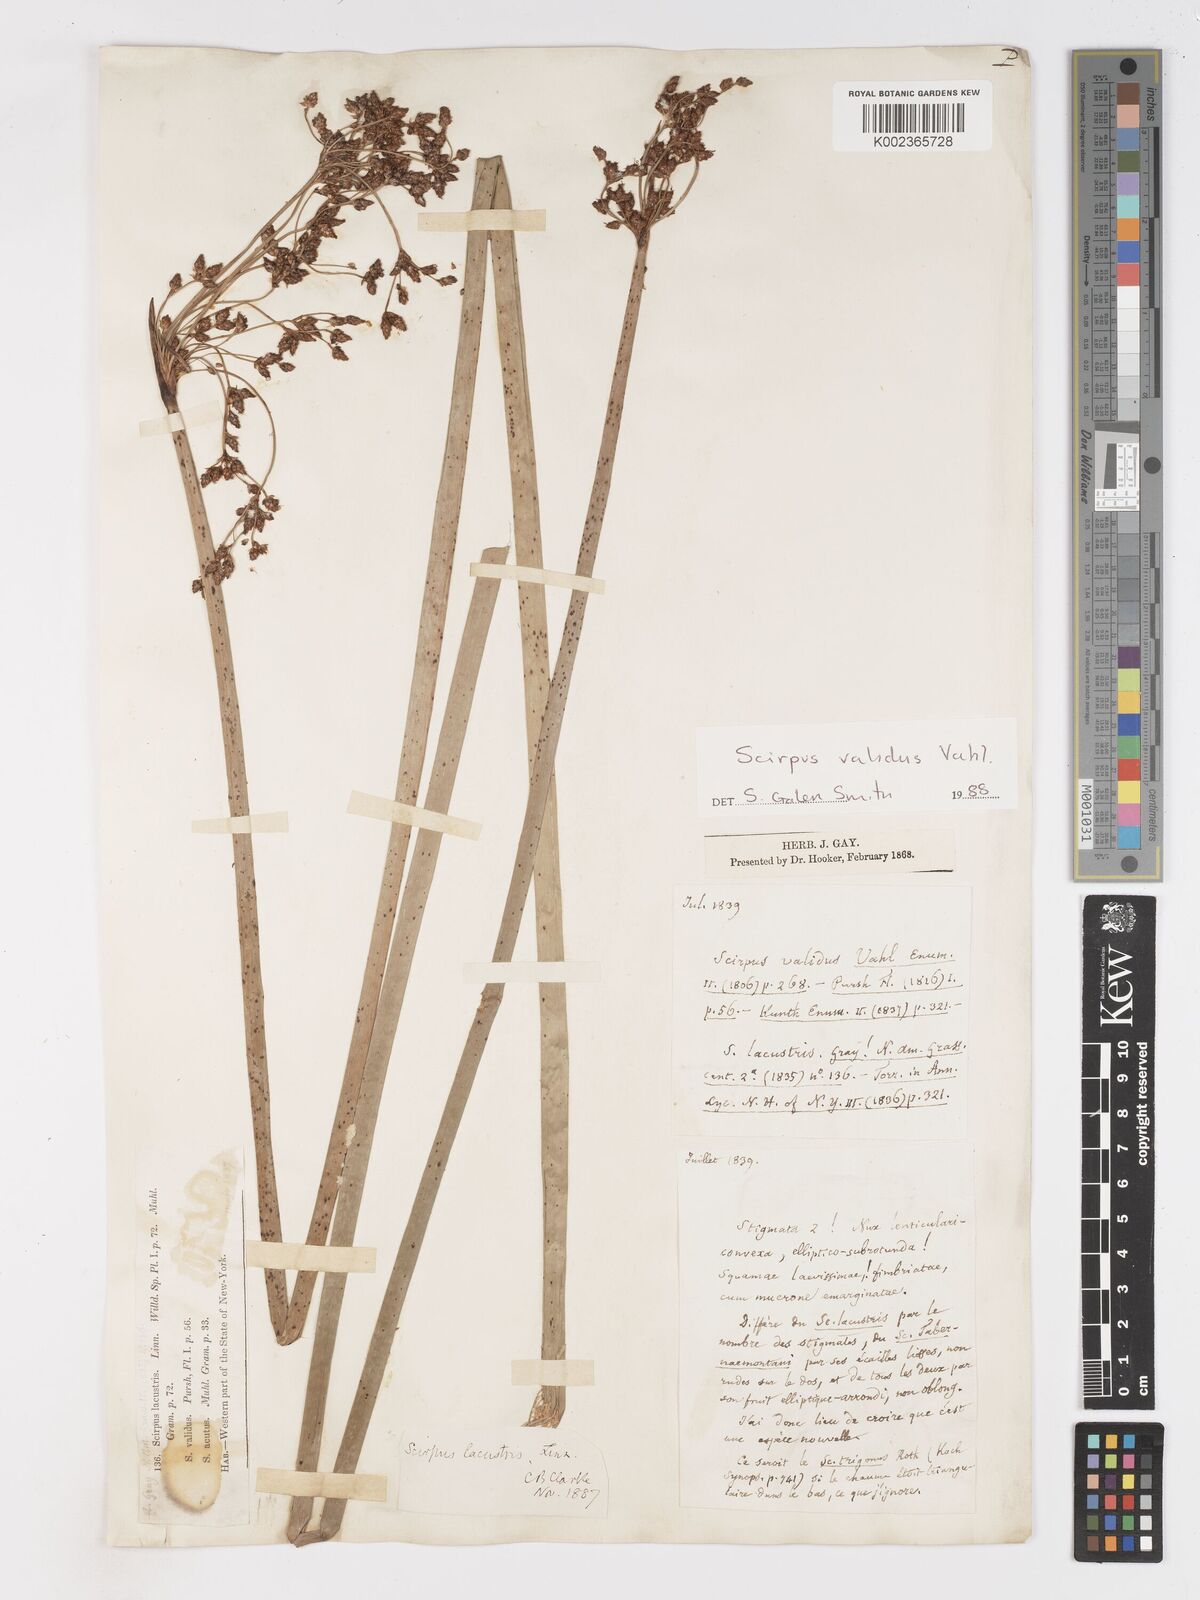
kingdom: Plantae
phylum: Tracheophyta
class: Liliopsida
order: Poales
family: Cyperaceae
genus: Schoenoplectus
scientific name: Schoenoplectus lacustris
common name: Common club-rush
